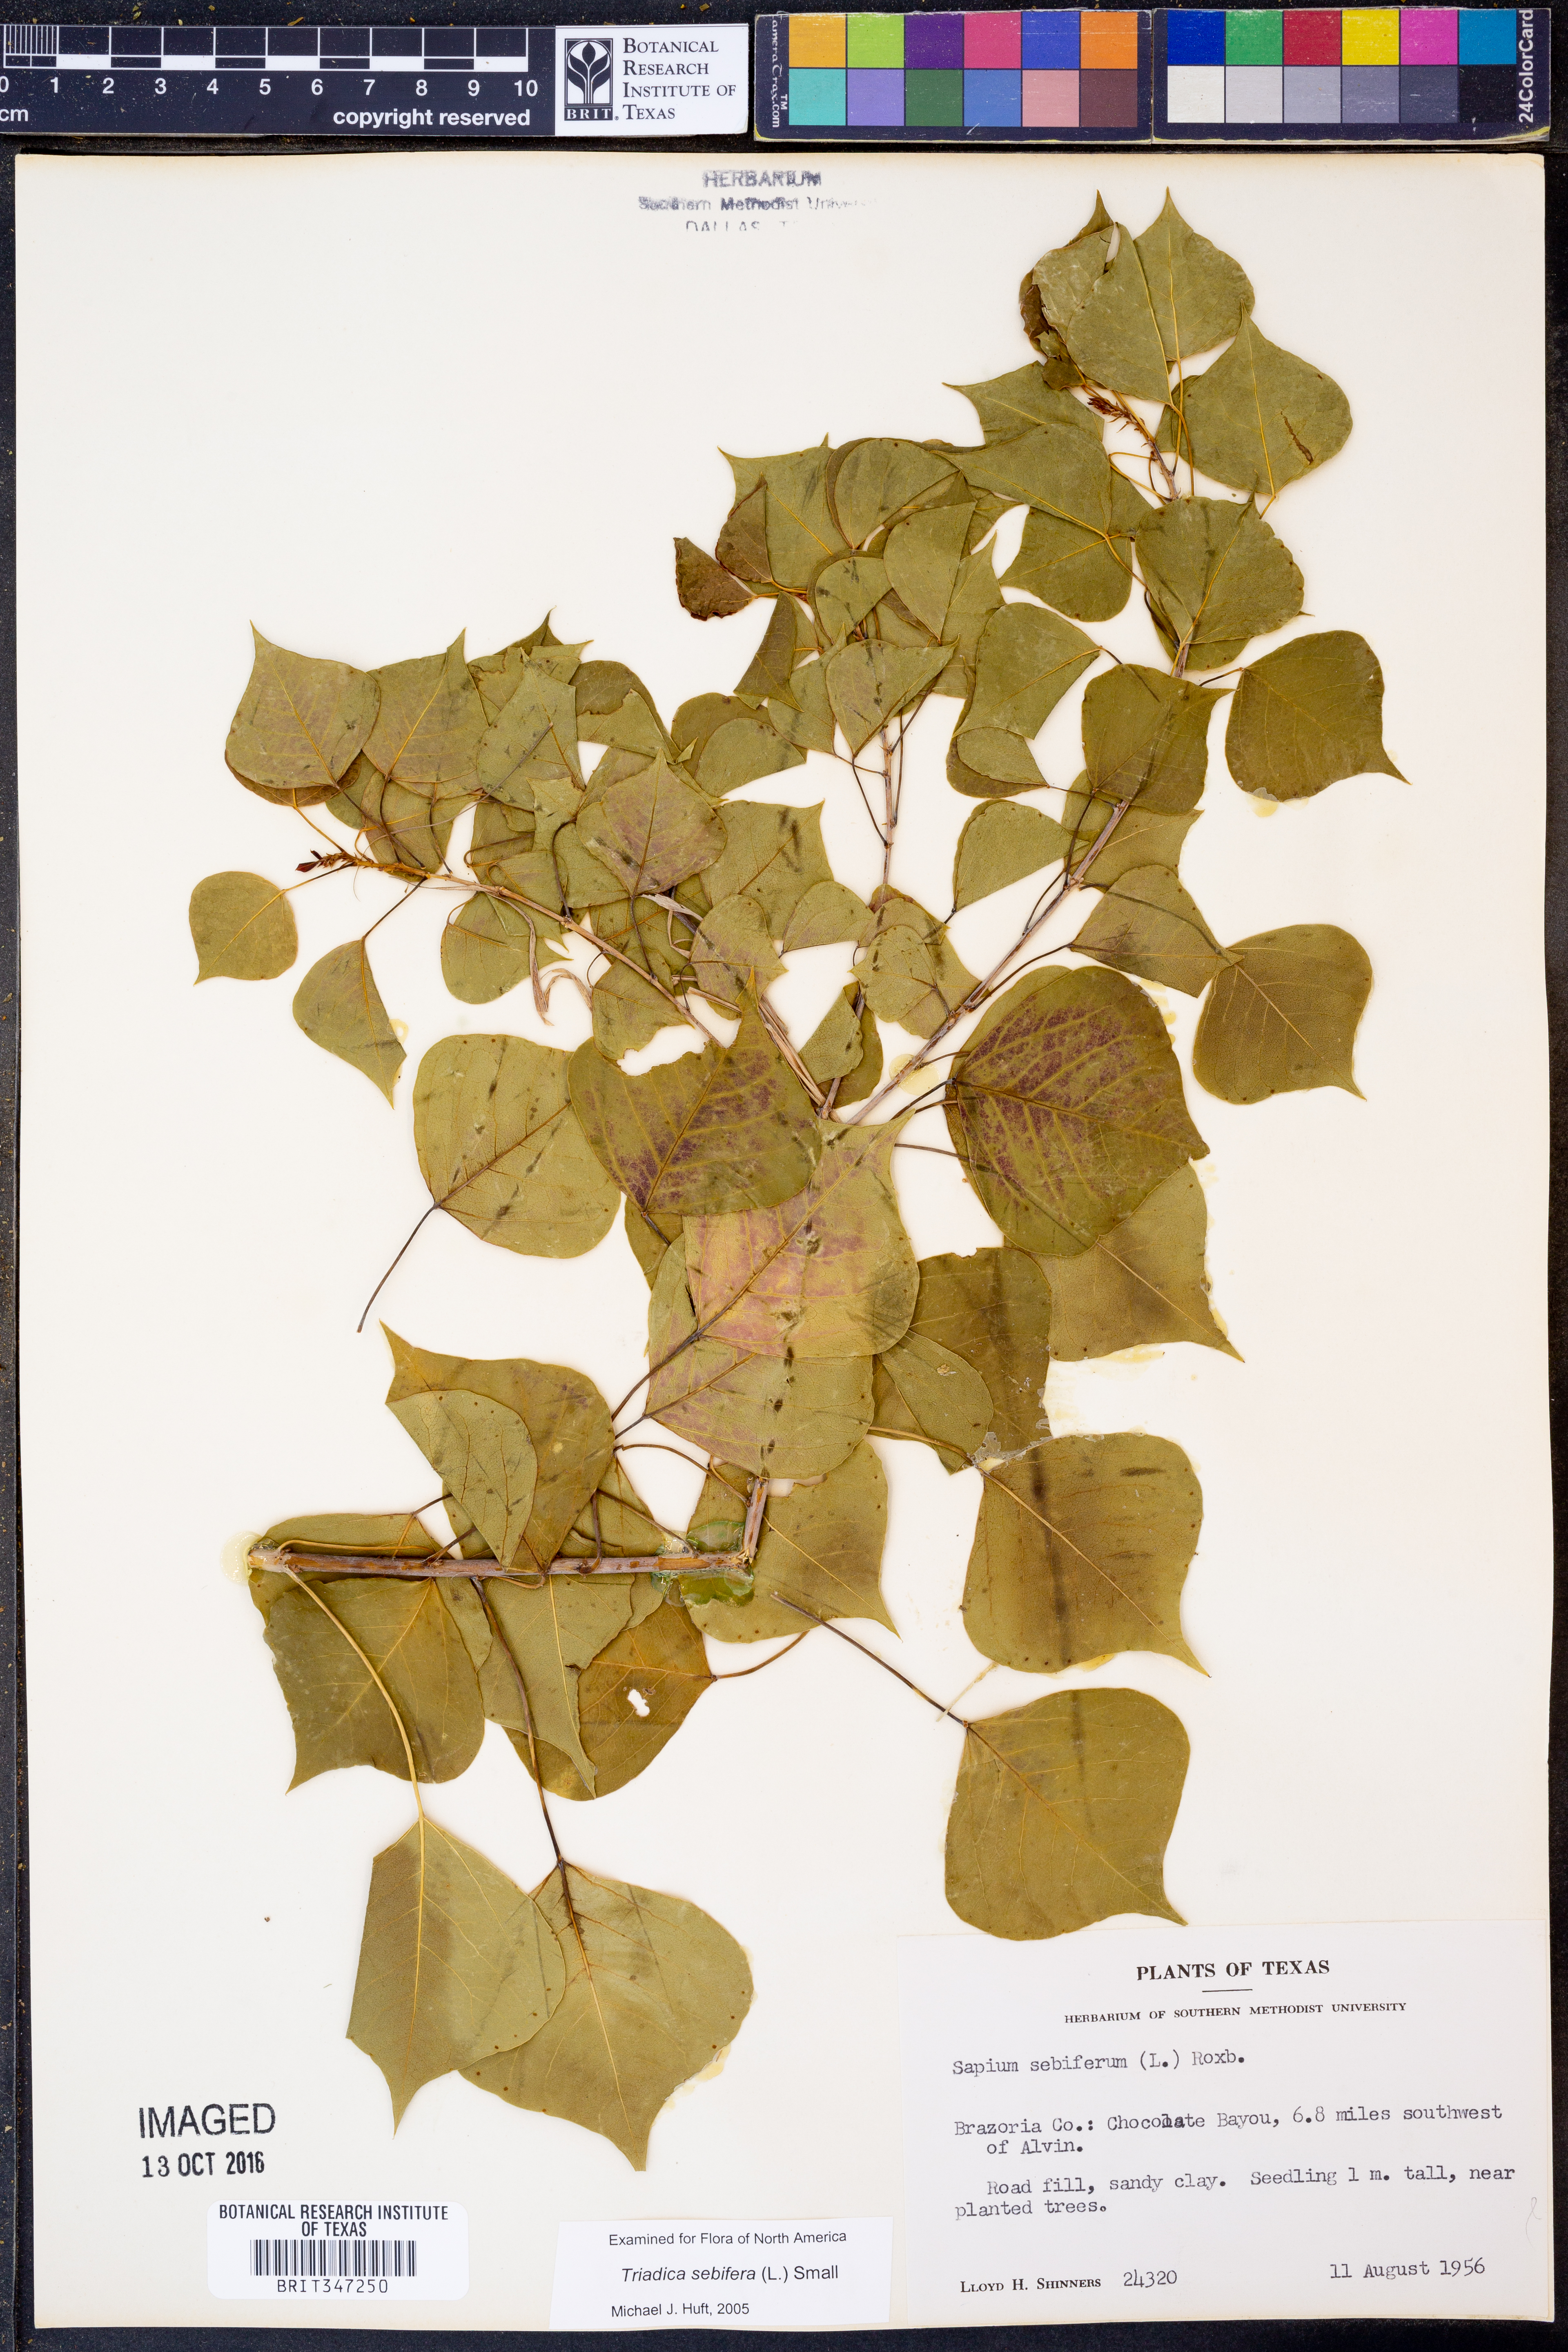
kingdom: Plantae
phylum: Tracheophyta
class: Magnoliopsida
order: Malpighiales
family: Euphorbiaceae
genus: Triadica
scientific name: Triadica sebifera
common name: Chinese tallow
